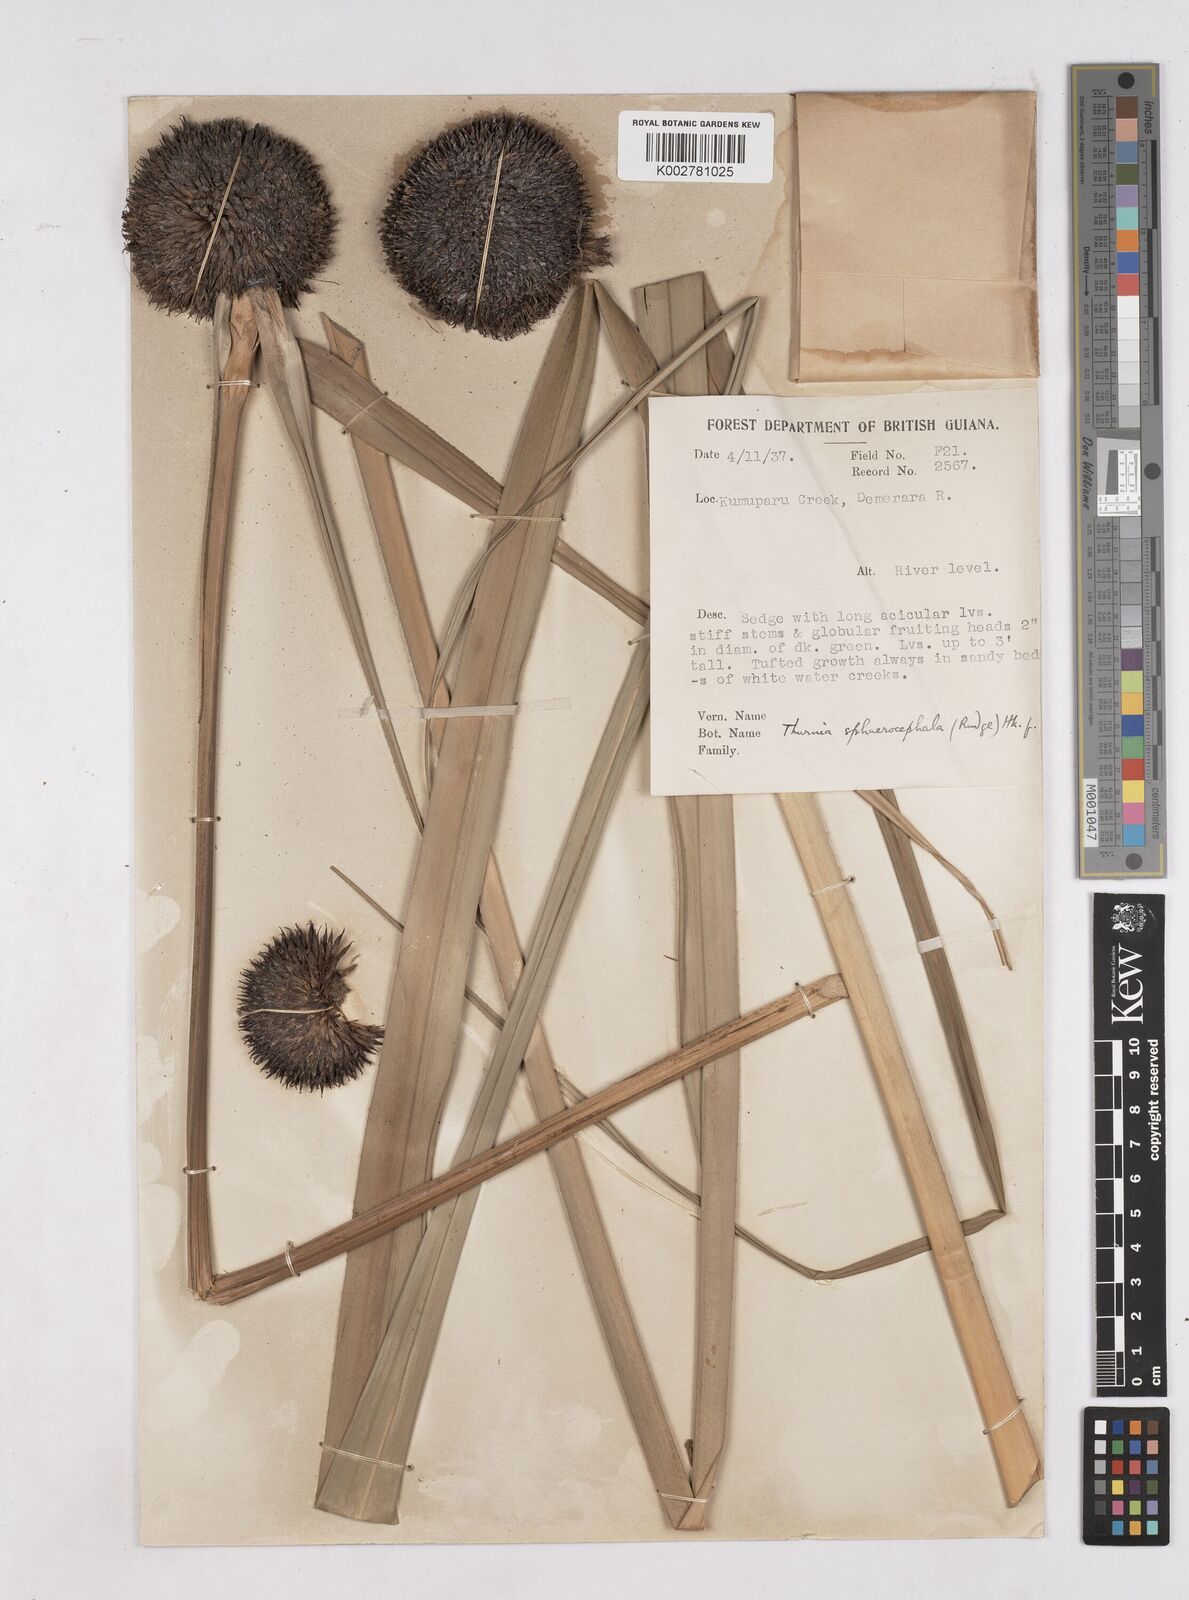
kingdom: Plantae
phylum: Tracheophyta
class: Liliopsida
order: Poales
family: Thurniaceae
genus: Thurnia
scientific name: Thurnia sphaerocephala
